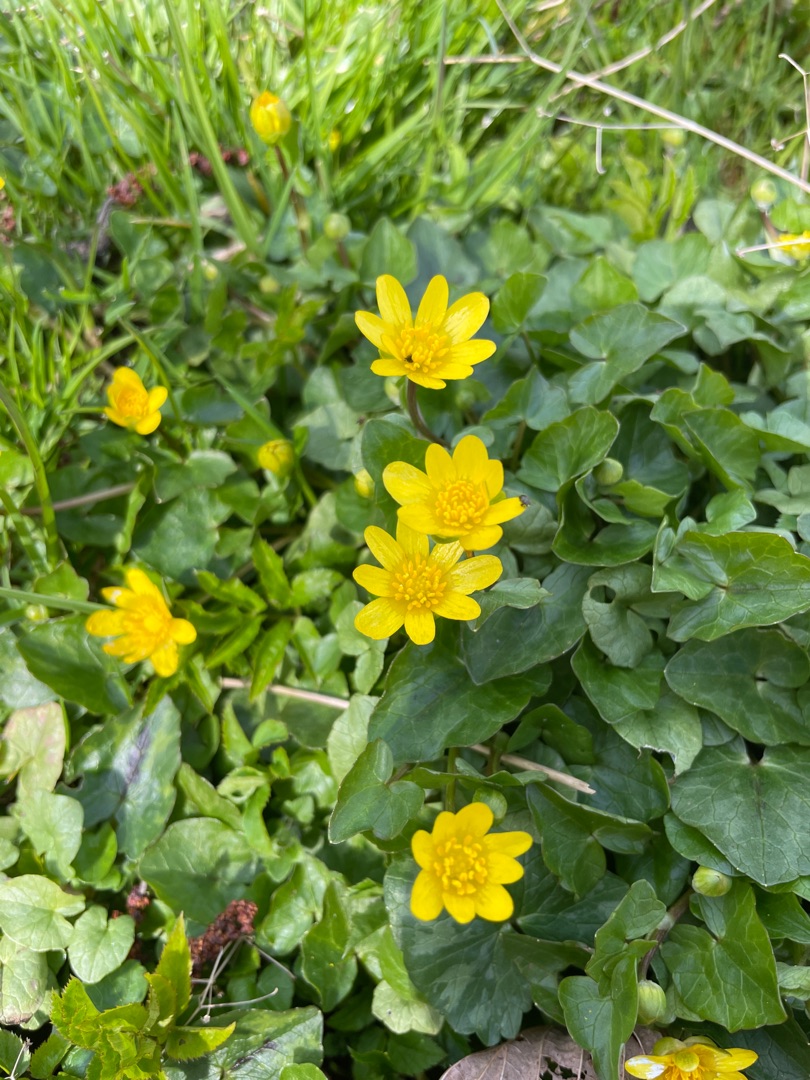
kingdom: Plantae
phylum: Tracheophyta
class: Magnoliopsida
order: Ranunculales
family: Ranunculaceae
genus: Ficaria
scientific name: Ficaria verna
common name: Vorterod
